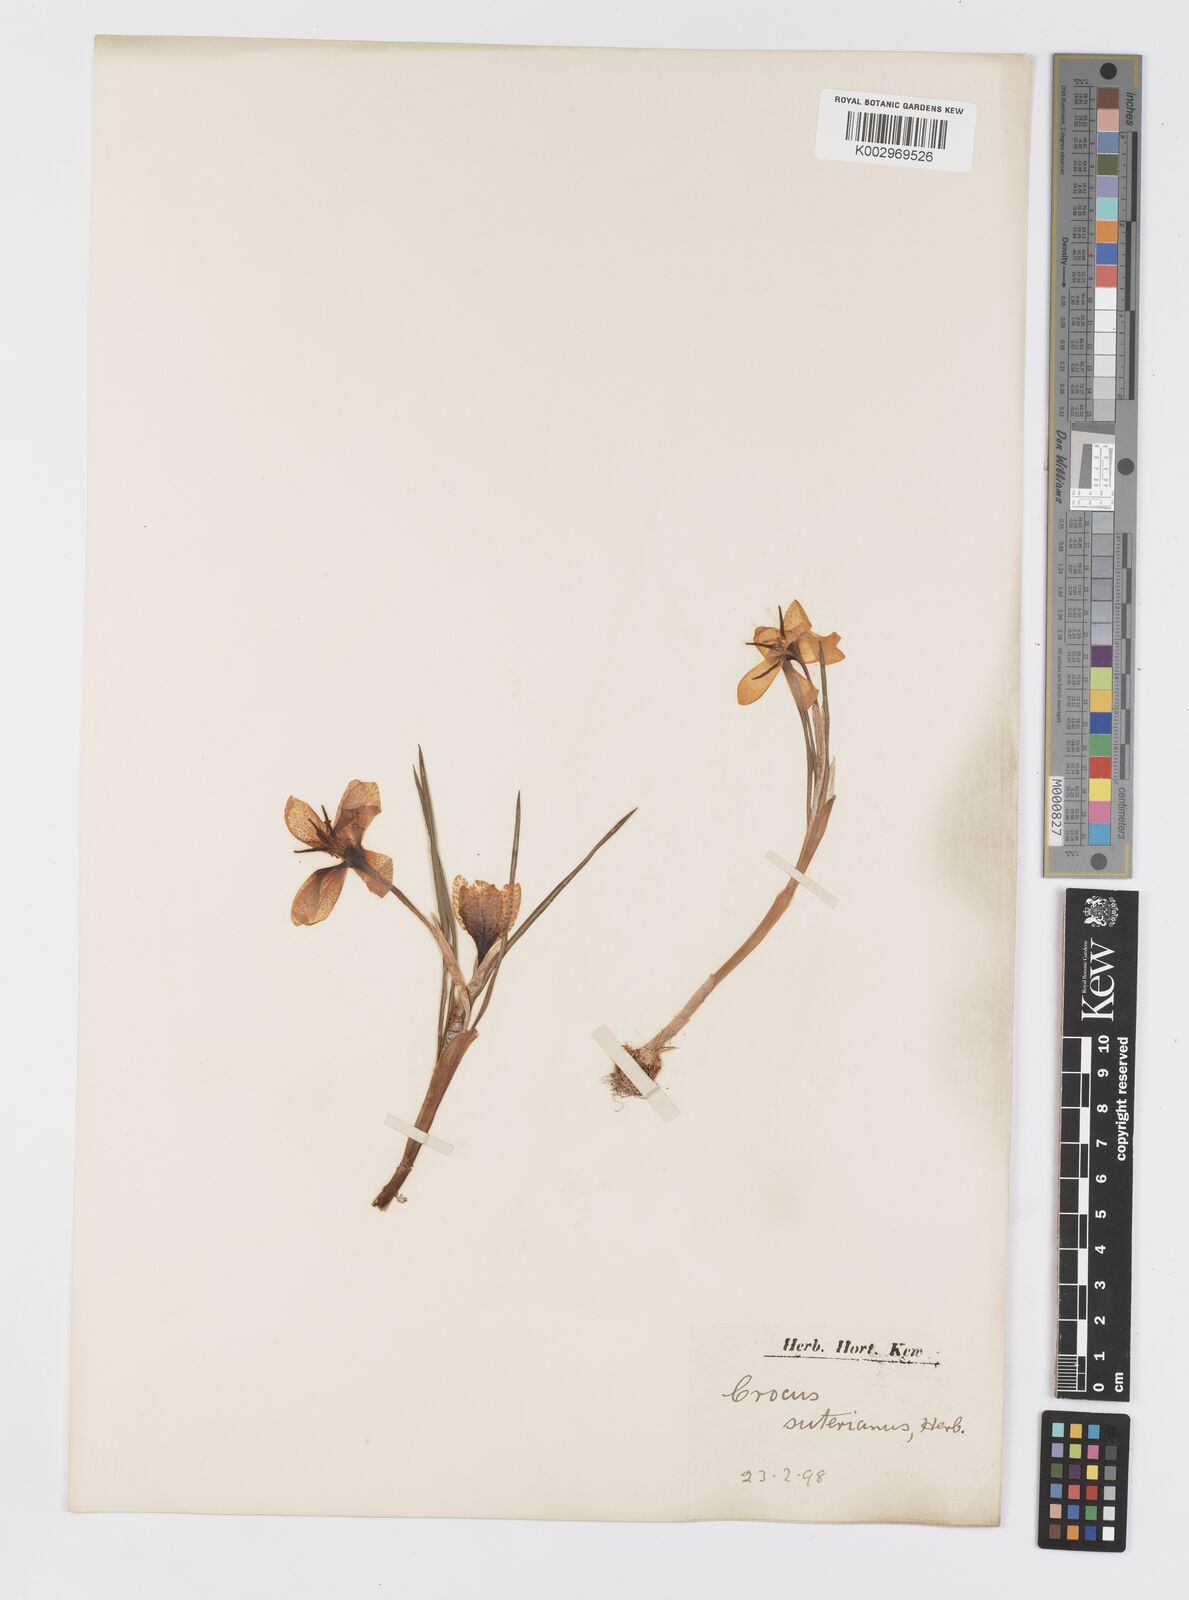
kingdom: Plantae
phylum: Tracheophyta
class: Liliopsida
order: Asparagales
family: Iridaceae
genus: Crocus
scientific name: Crocus olivieri
